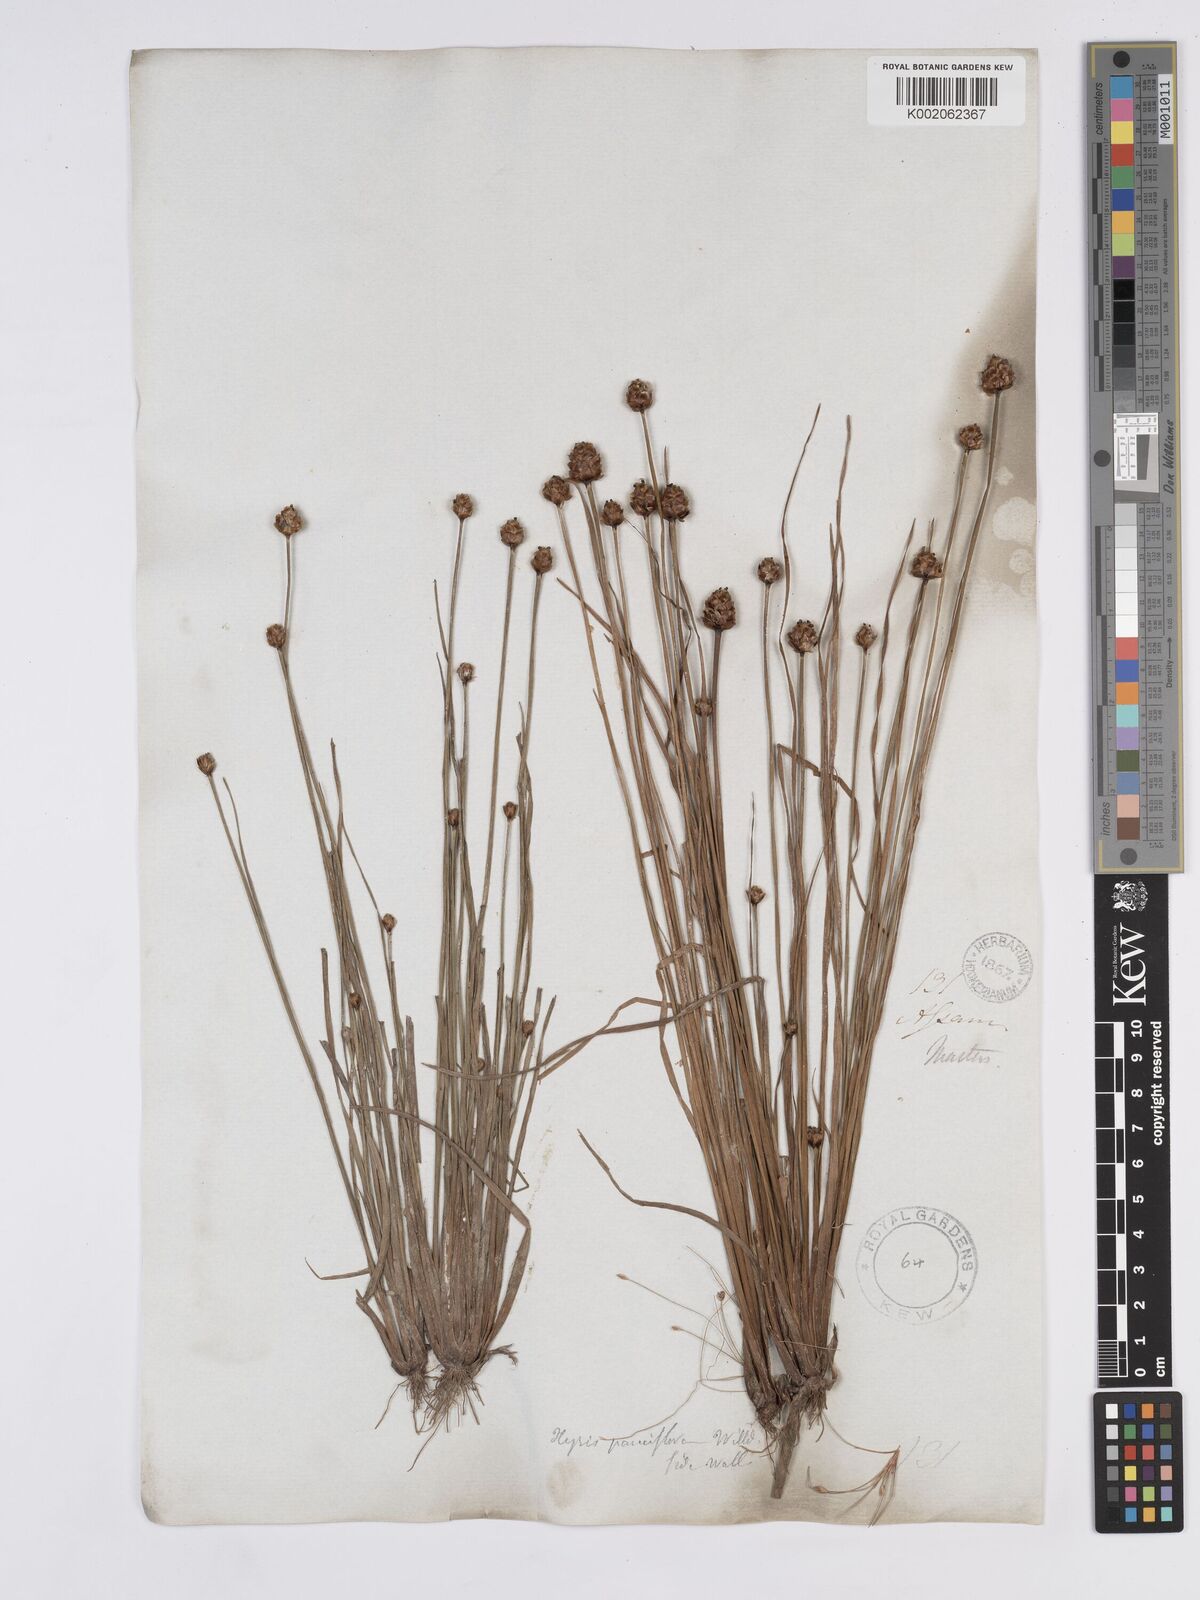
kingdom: Plantae
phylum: Tracheophyta
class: Liliopsida
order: Poales
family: Xyridaceae
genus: Xyris
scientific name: Xyris pauciflora
